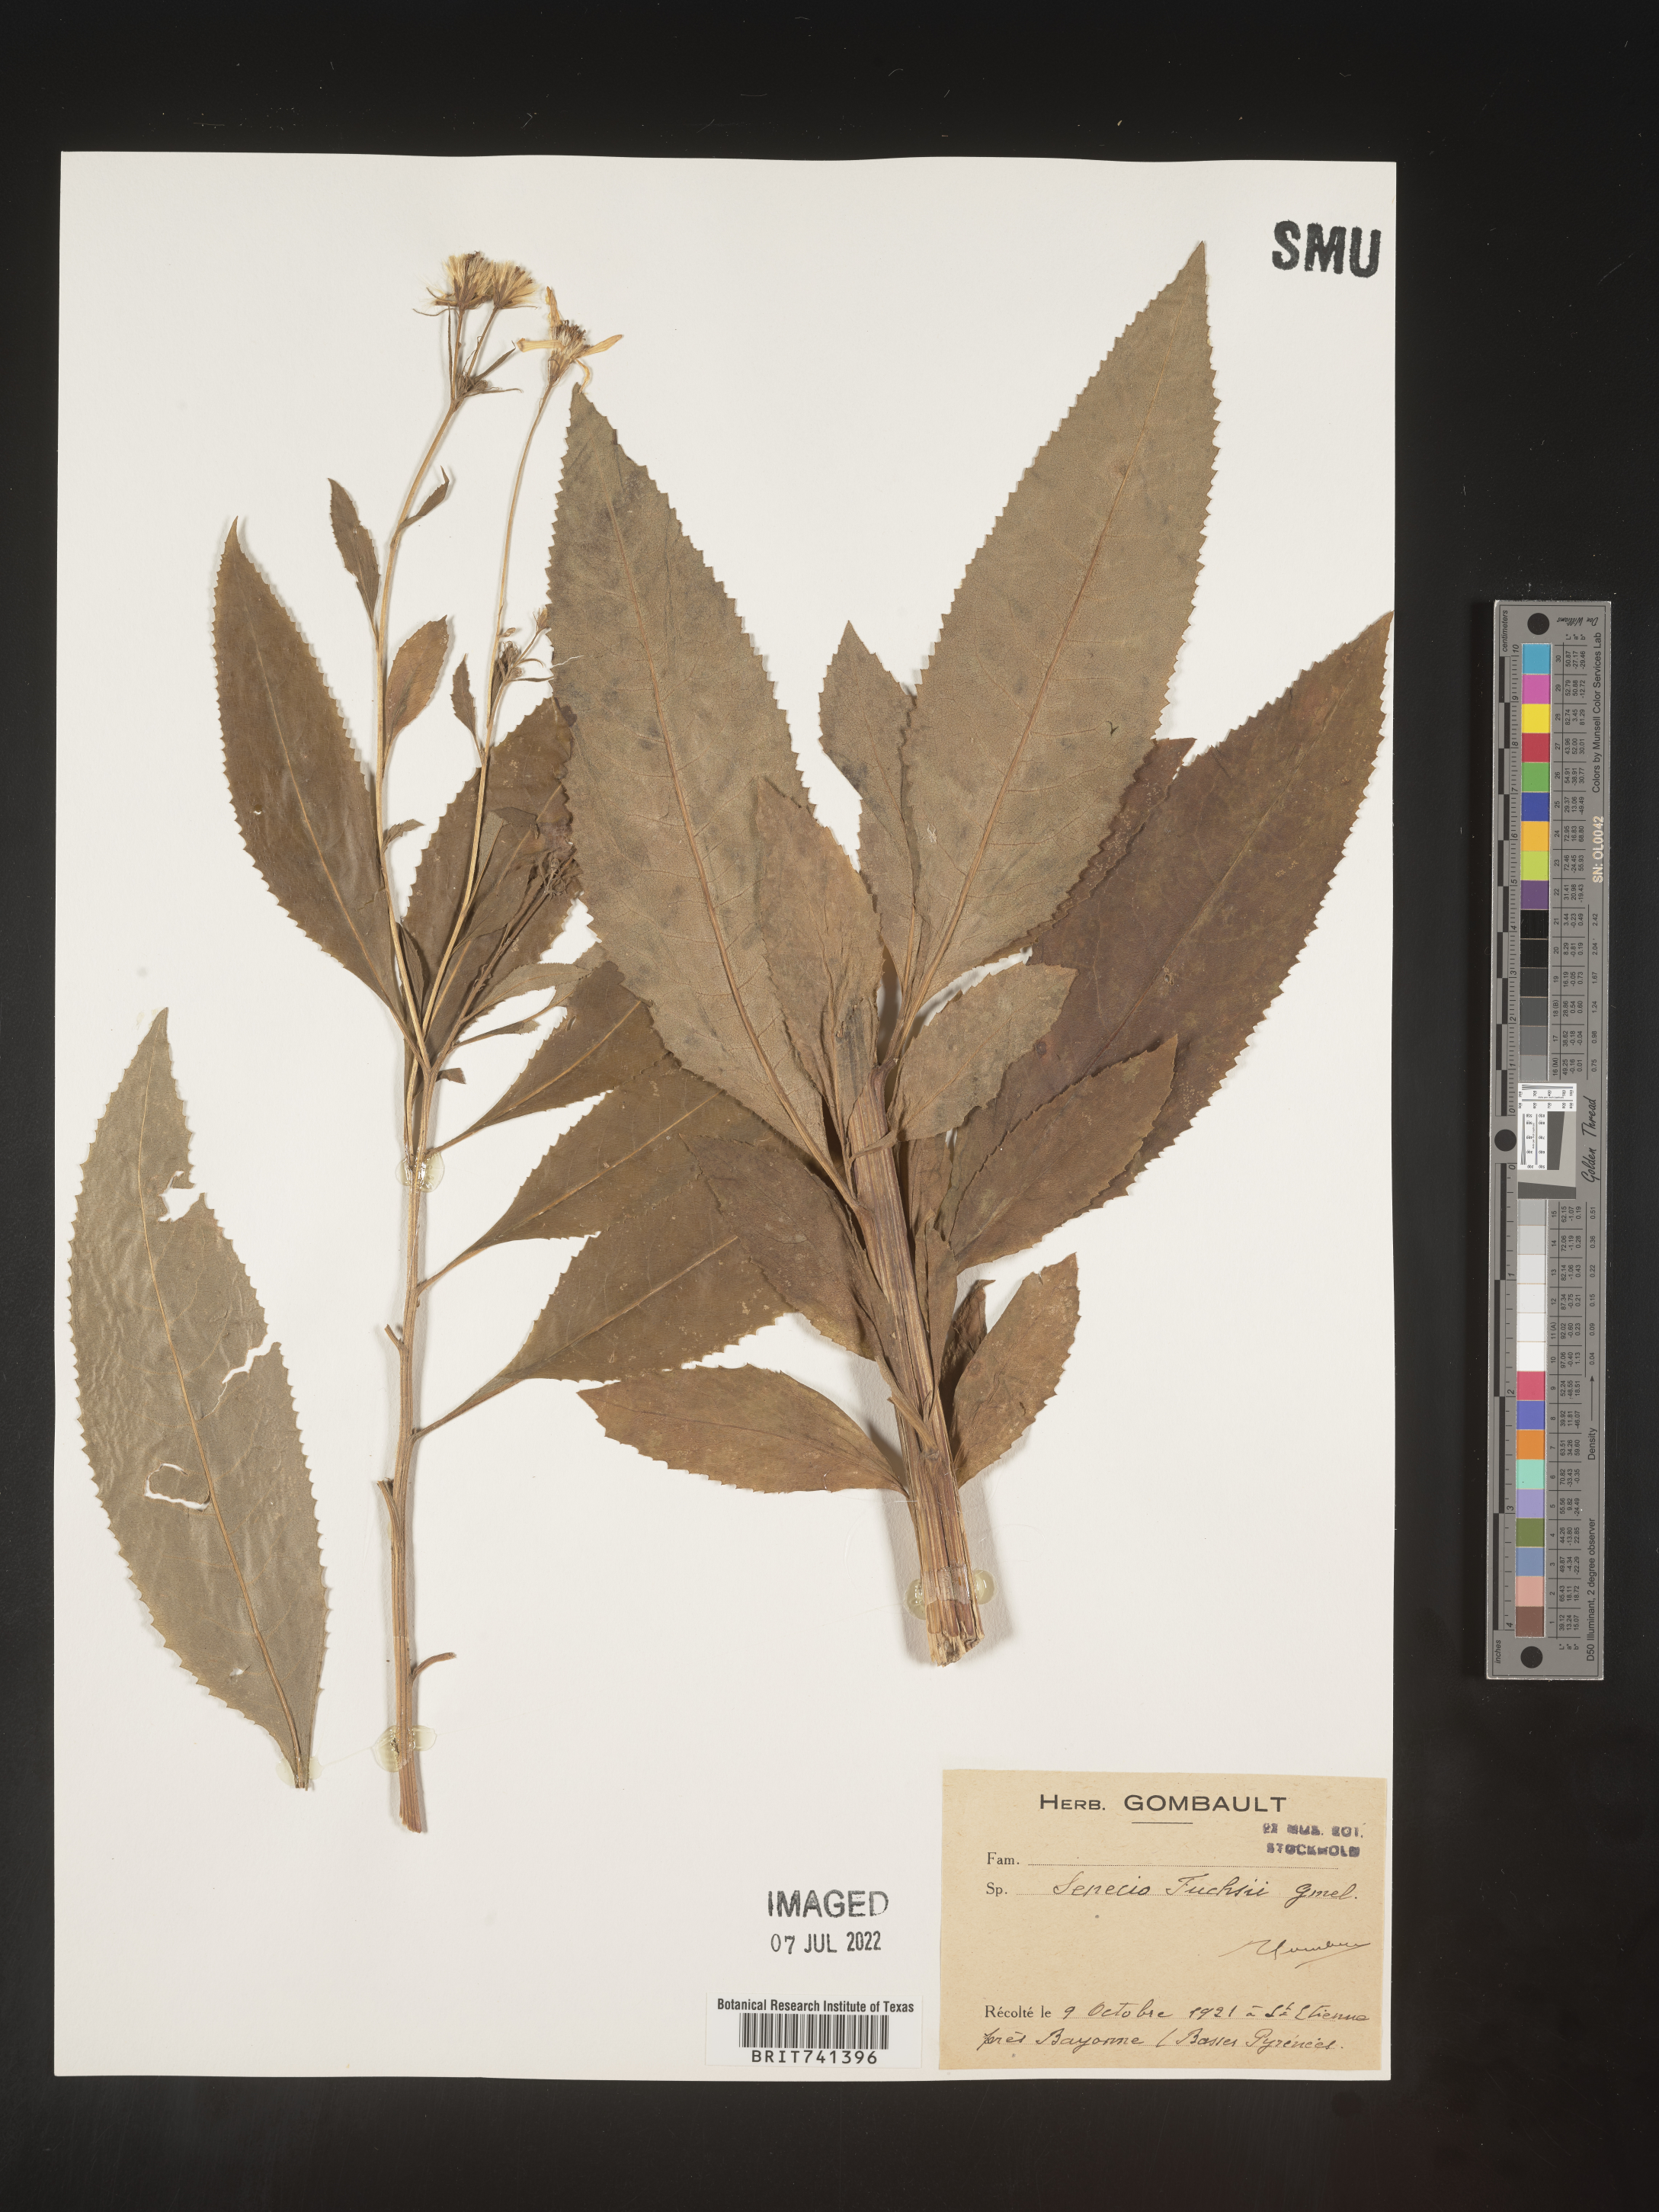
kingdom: Plantae
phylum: Tracheophyta
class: Magnoliopsida
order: Asterales
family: Asteraceae
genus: Senecio
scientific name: Senecio
